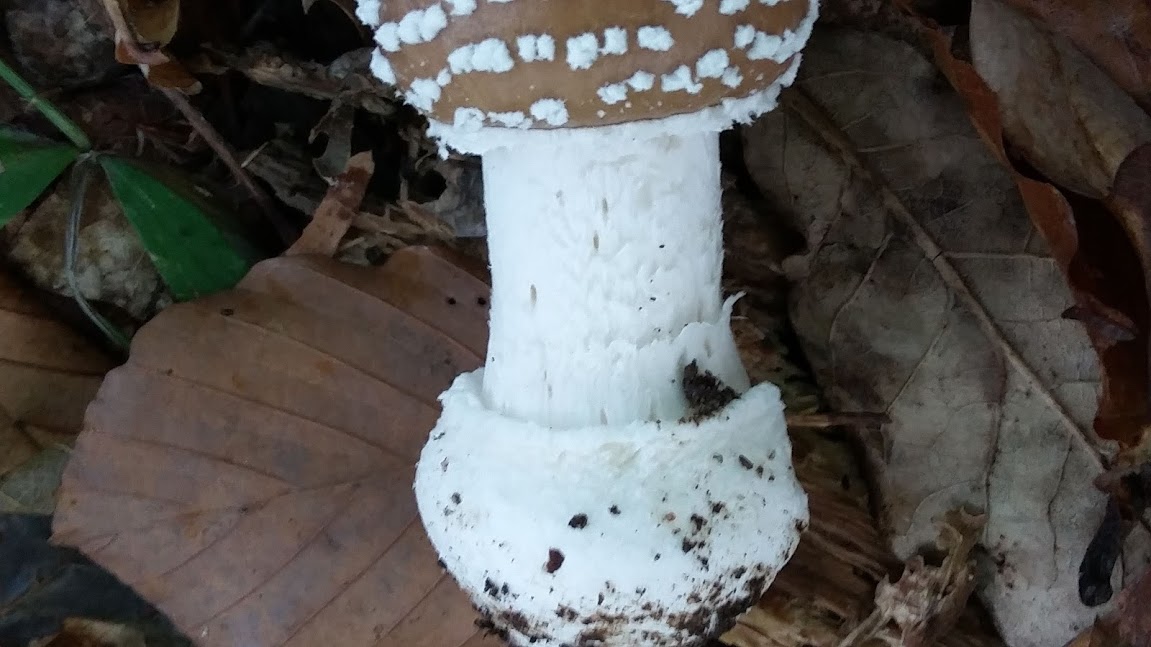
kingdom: Fungi
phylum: Basidiomycota
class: Agaricomycetes
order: Agaricales
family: Amanitaceae
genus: Amanita
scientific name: Amanita pantherina
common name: panter-fluesvamp
